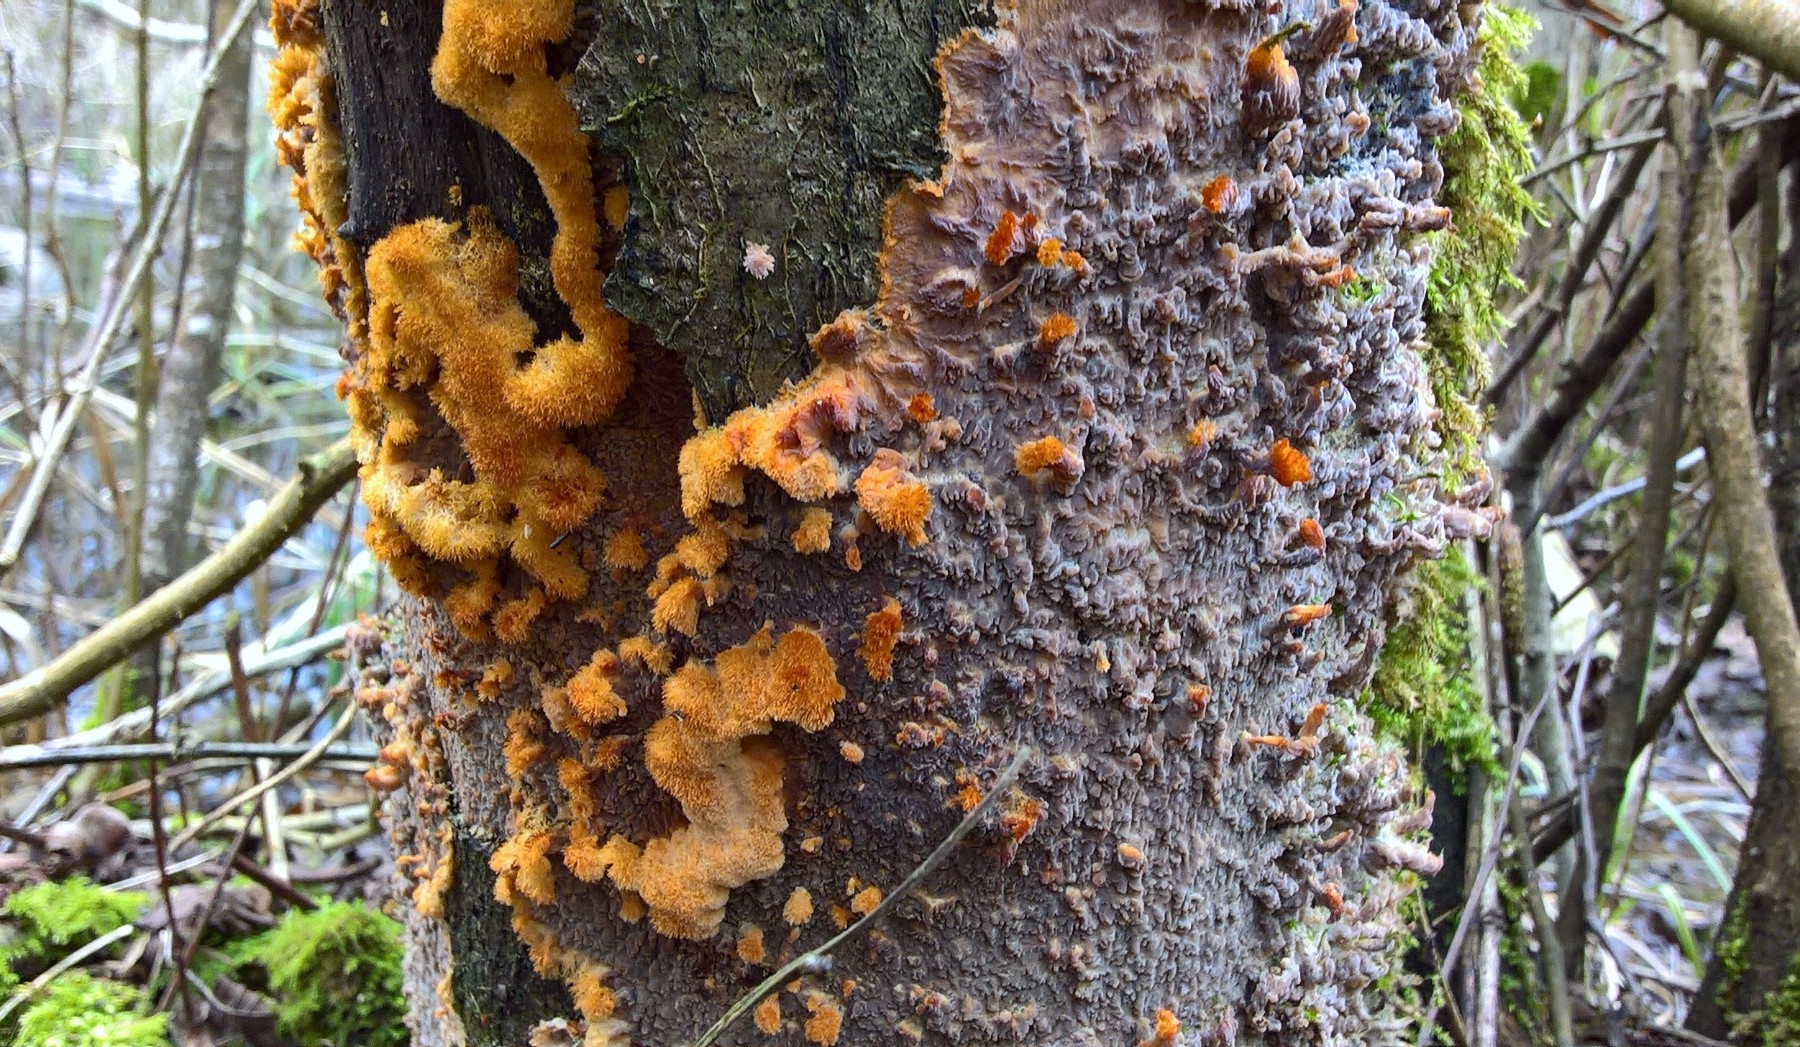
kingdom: Fungi
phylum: Basidiomycota
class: Agaricomycetes
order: Polyporales
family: Meruliaceae
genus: Phlebia
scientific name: Phlebia radiata
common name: stråle-åresvamp
